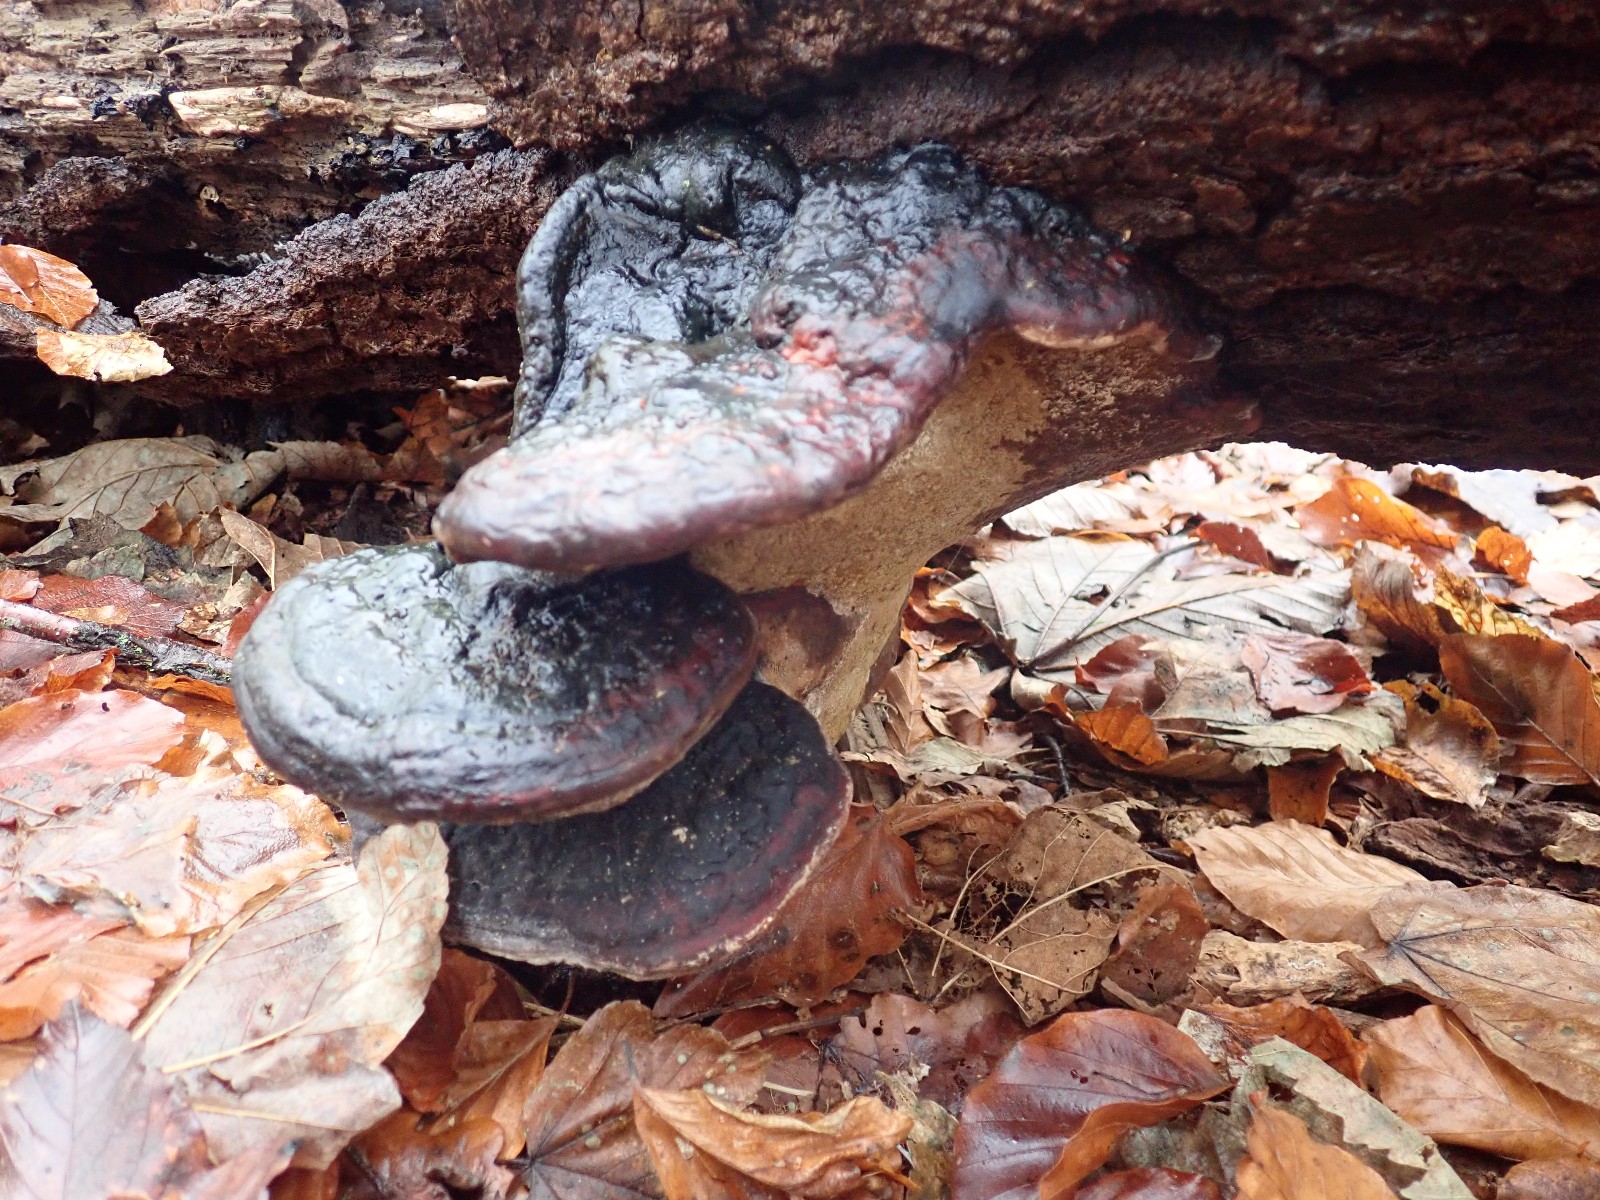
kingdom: Fungi
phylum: Basidiomycota
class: Agaricomycetes
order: Polyporales
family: Fomitopsidaceae
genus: Fomitopsis
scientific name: Fomitopsis pinicola
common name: randbæltet hovporesvamp
